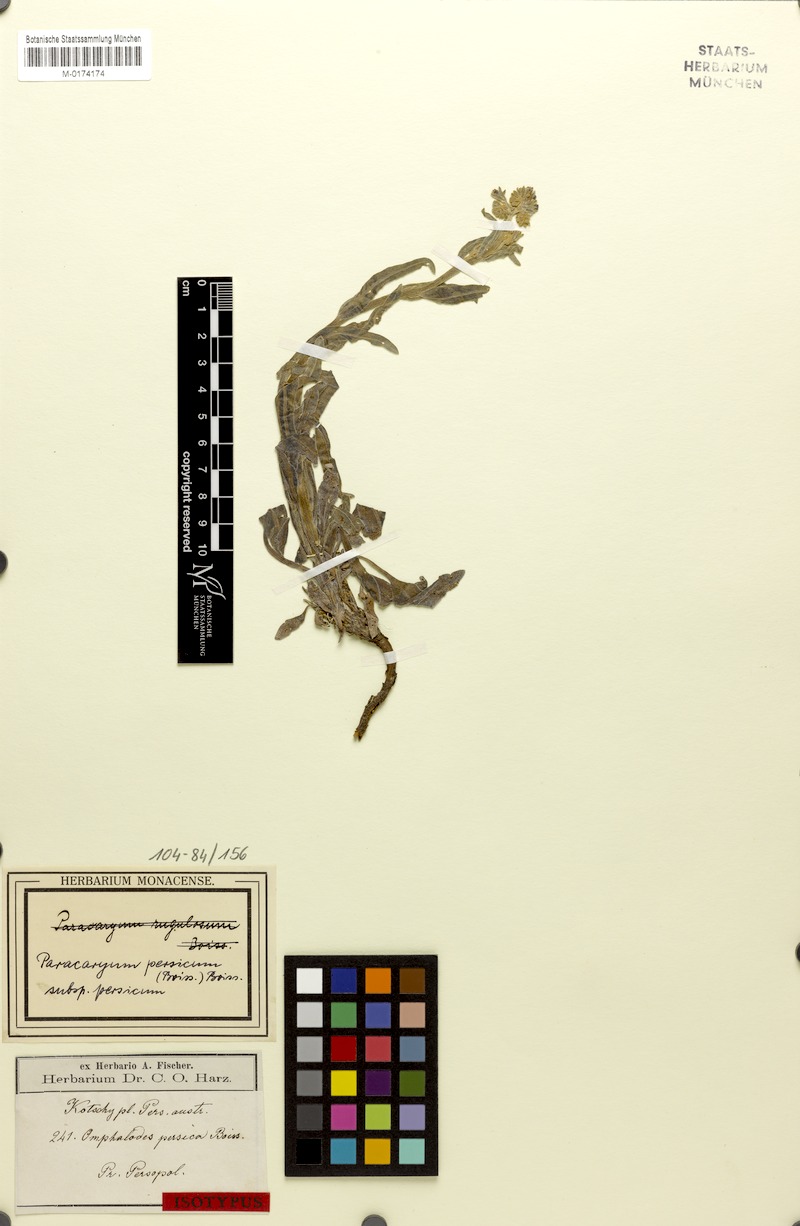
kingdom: Plantae
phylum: Tracheophyta
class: Magnoliopsida
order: Boraginales
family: Boraginaceae
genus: Paracaryum
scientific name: Paracaryum persicum
